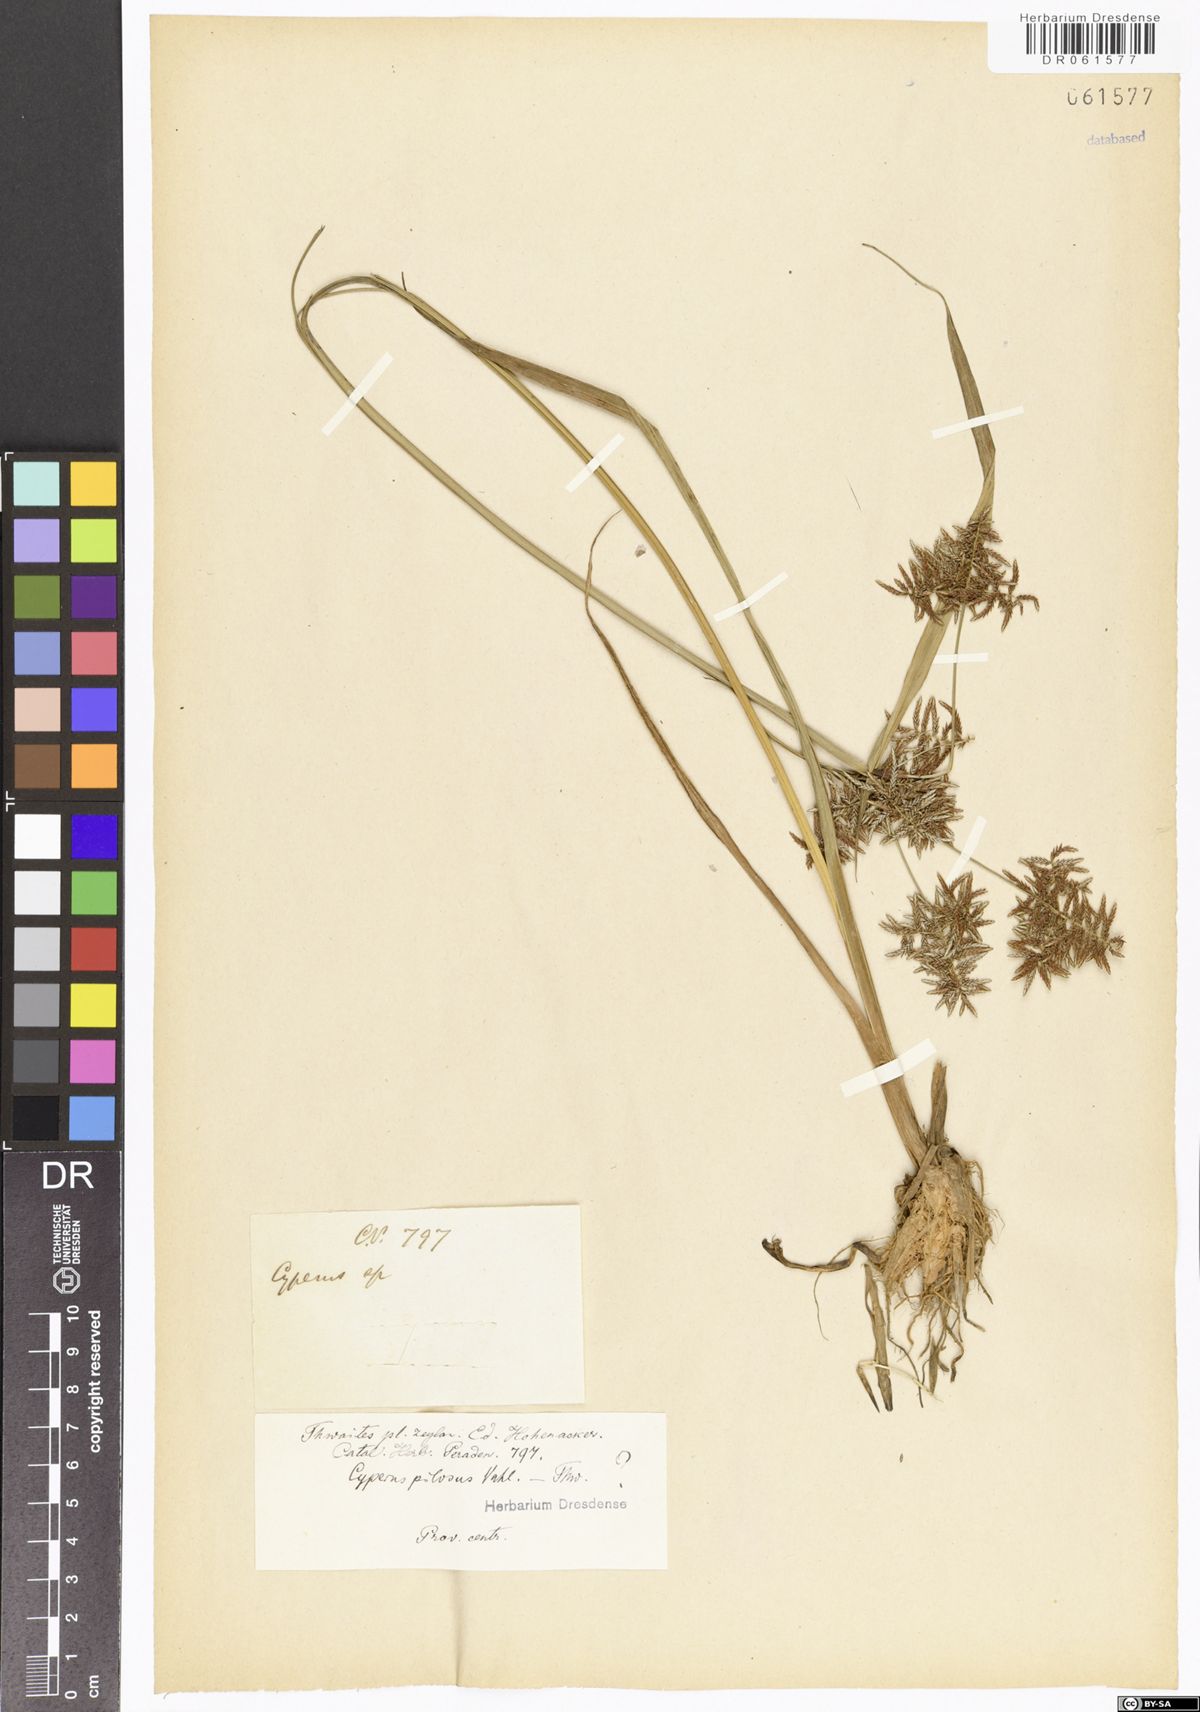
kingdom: Plantae
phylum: Tracheophyta
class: Liliopsida
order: Poales
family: Cyperaceae
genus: Cyperus
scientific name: Cyperus pilosus
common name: Fuzzy flatsedge
